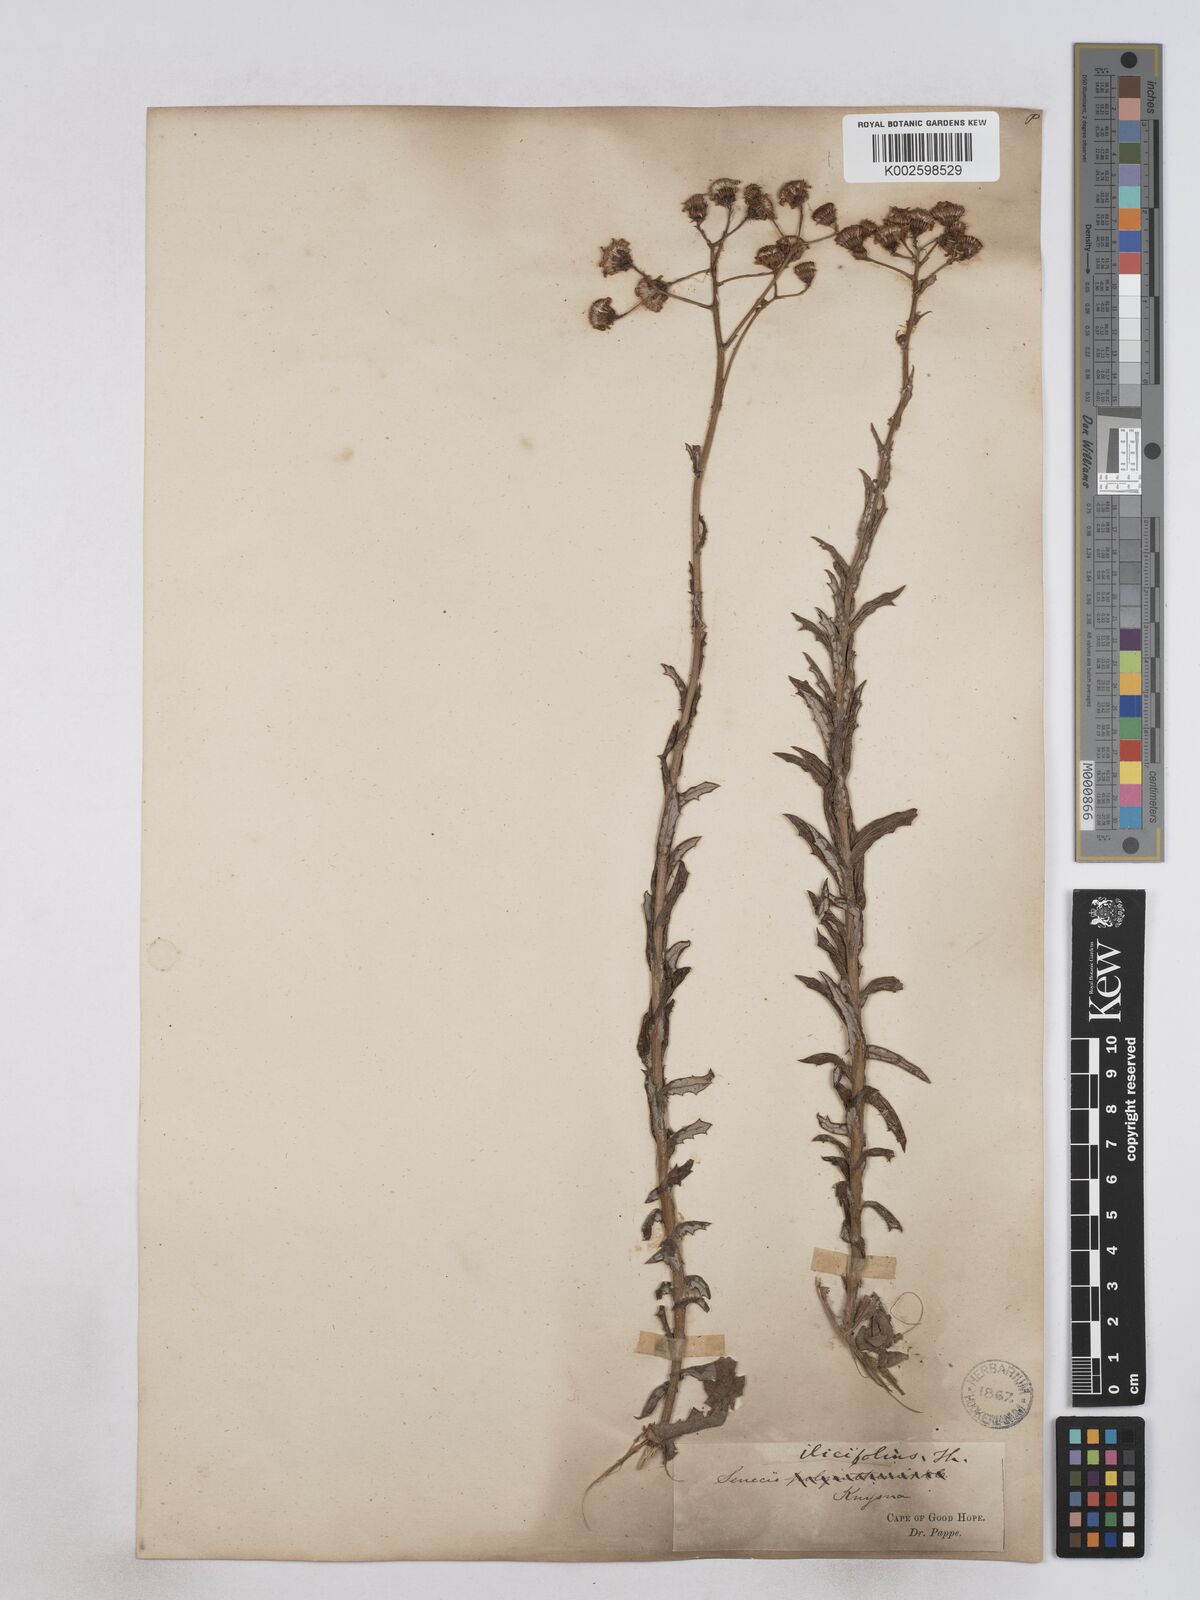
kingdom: Plantae
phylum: Tracheophyta
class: Magnoliopsida
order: Asterales
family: Asteraceae
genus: Senecio
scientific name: Senecio ilicifolius
